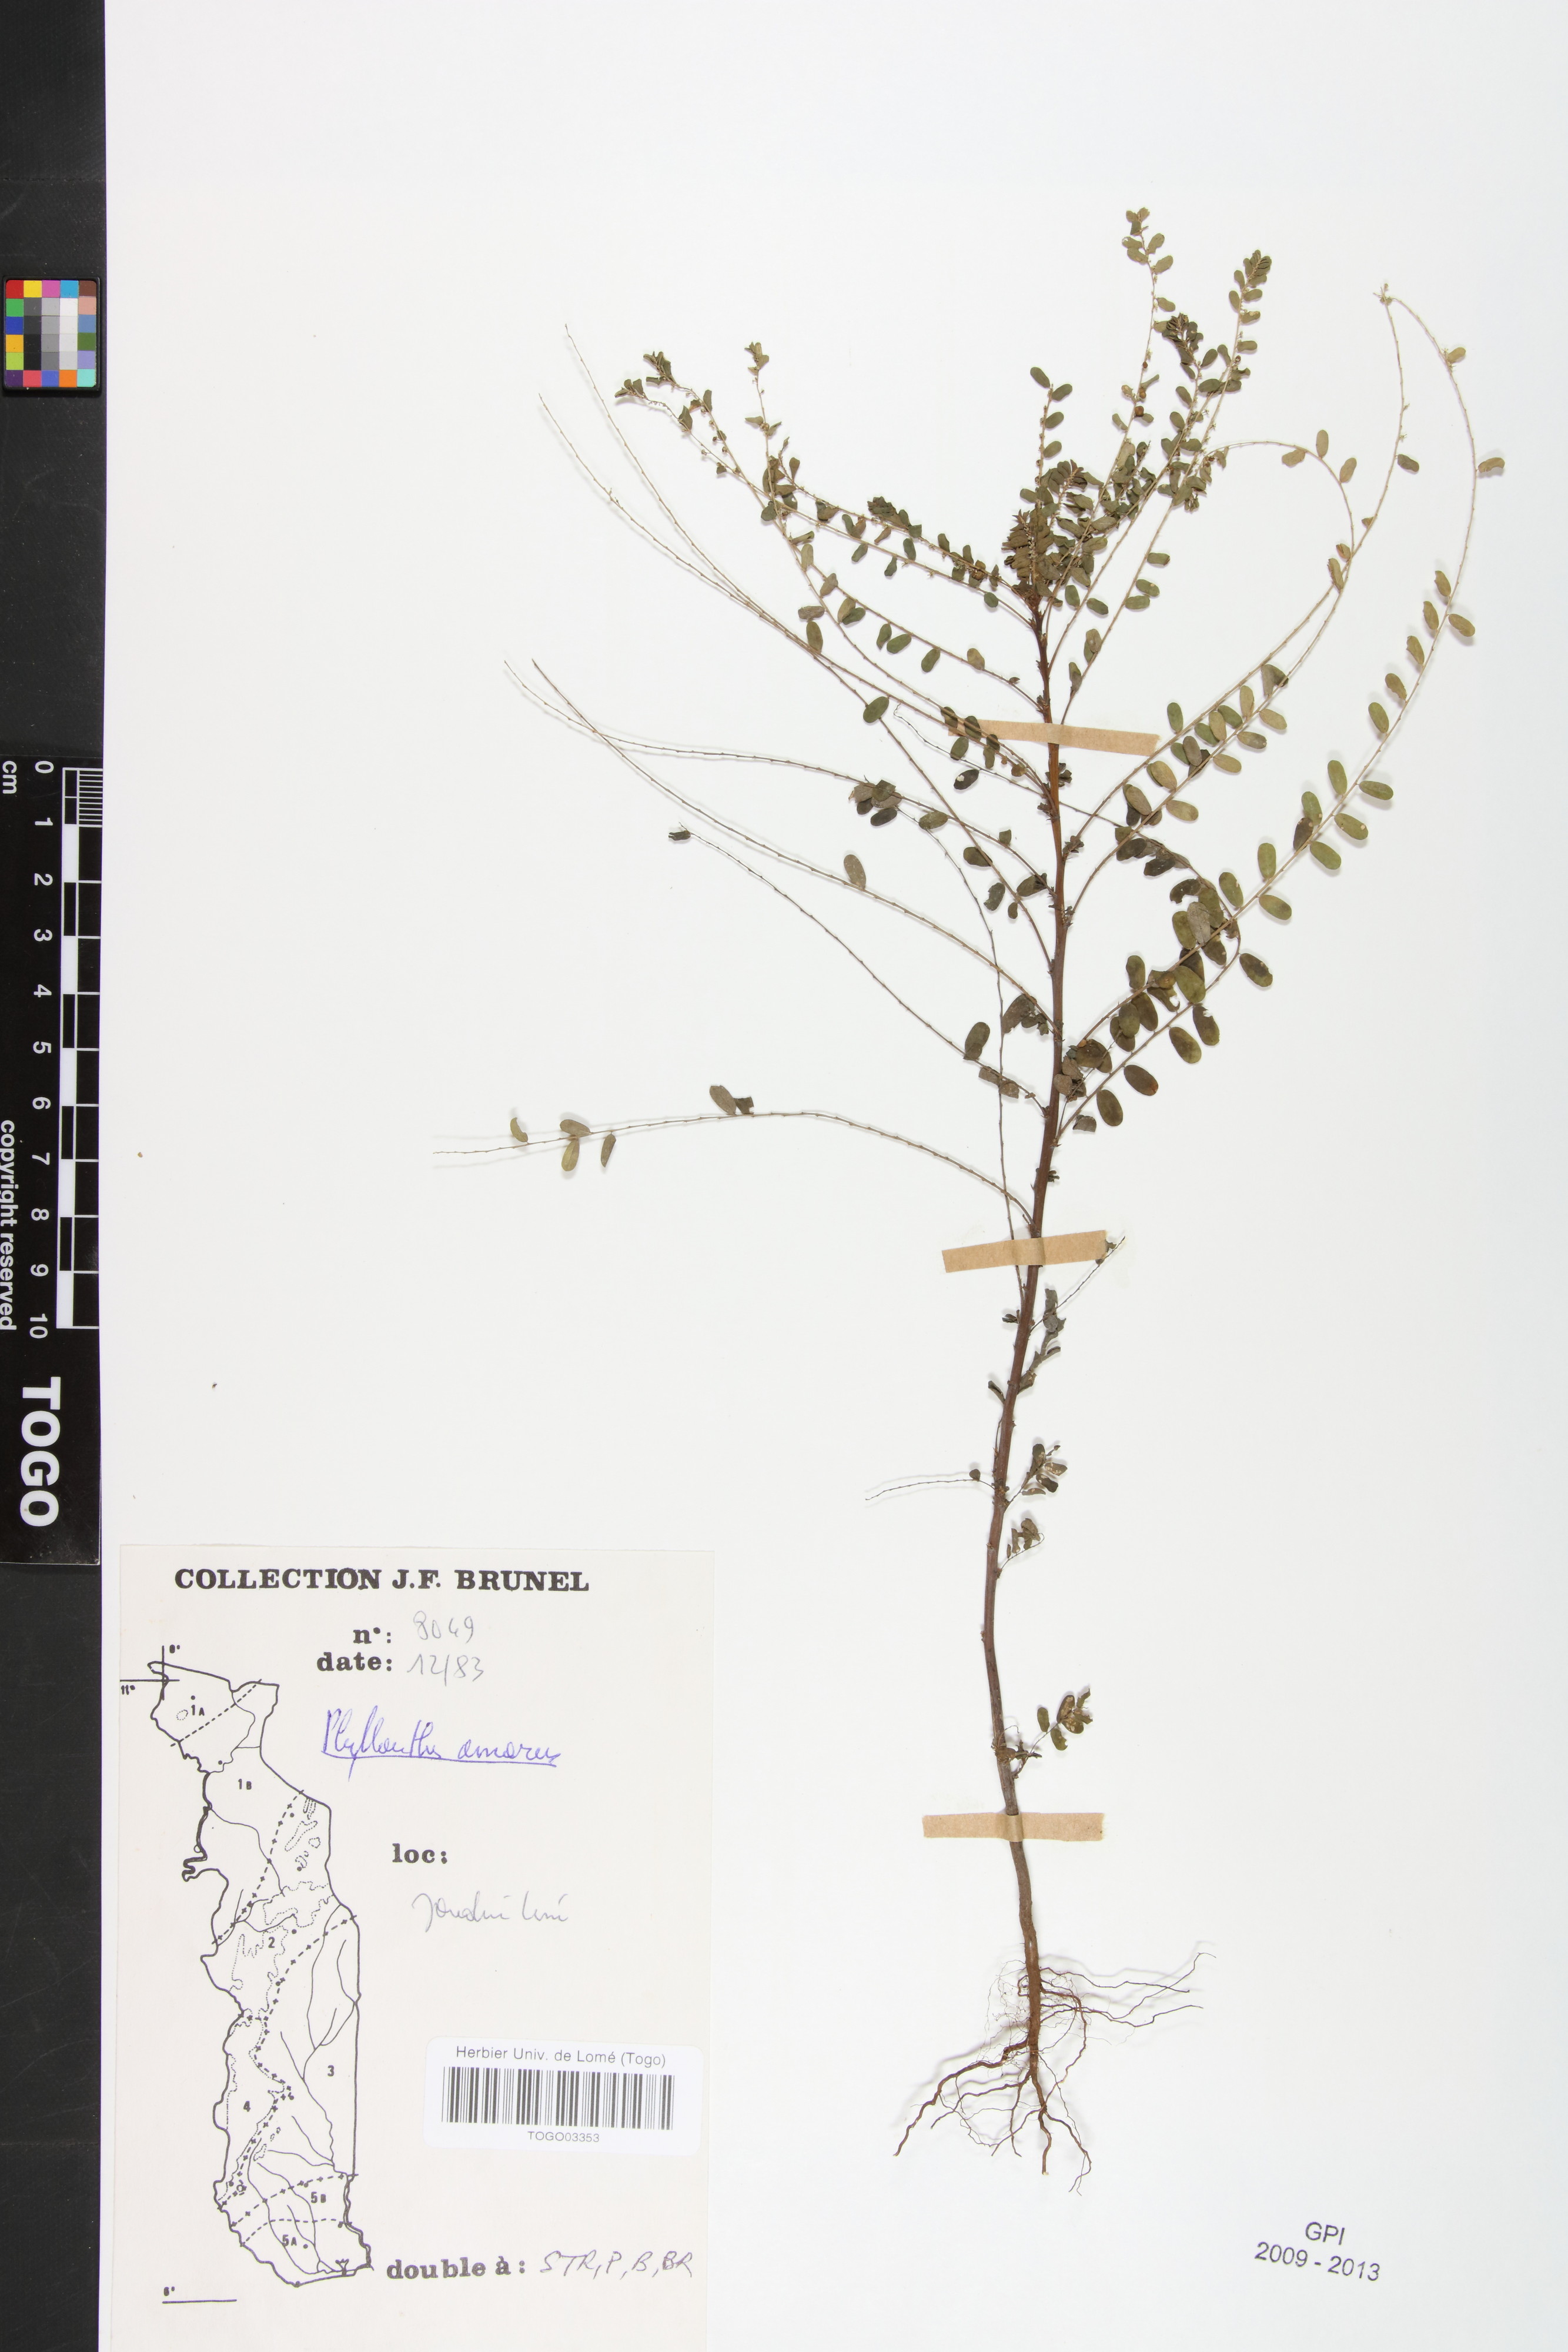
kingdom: Plantae
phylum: Tracheophyta
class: Magnoliopsida
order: Malpighiales
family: Phyllanthaceae
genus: Phyllanthus
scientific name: Phyllanthus amarus
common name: Carry me seed
